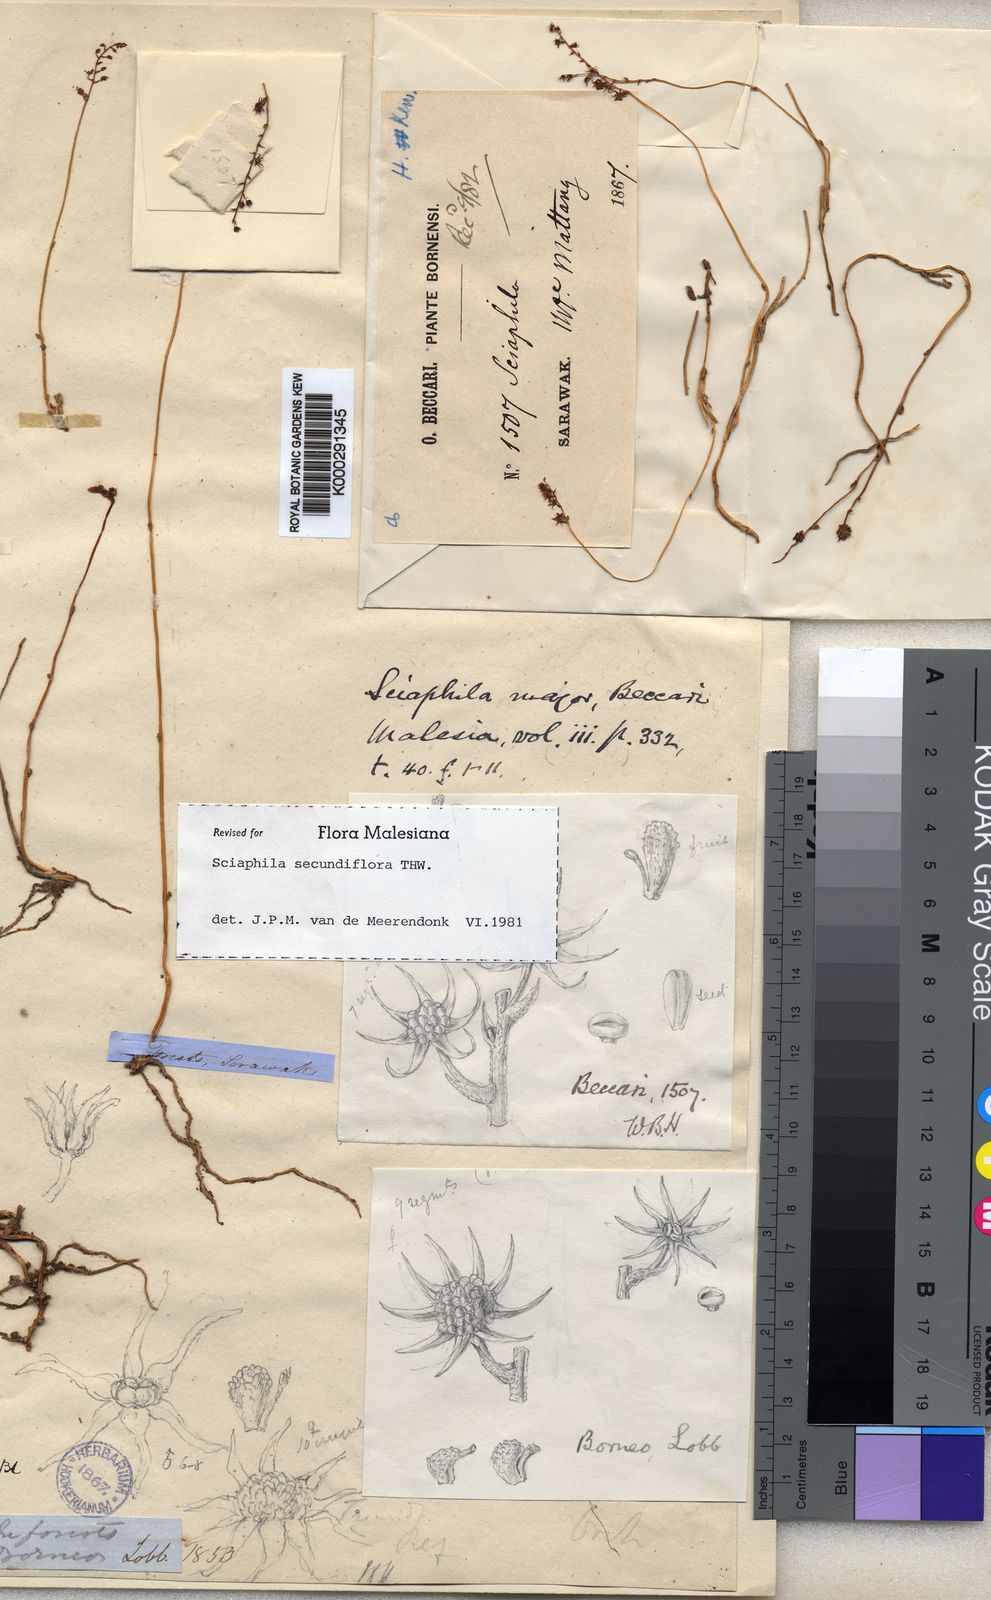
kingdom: Plantae
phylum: Tracheophyta
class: Liliopsida
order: Pandanales
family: Triuridaceae
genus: Sciaphila
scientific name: Sciaphila secundiflora
